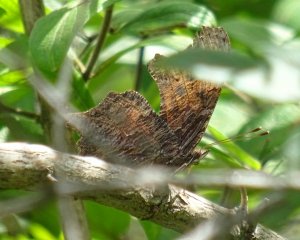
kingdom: Animalia
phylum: Arthropoda
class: Insecta
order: Lepidoptera
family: Nymphalidae
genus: Polygonia
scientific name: Polygonia progne
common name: Gray Comma
